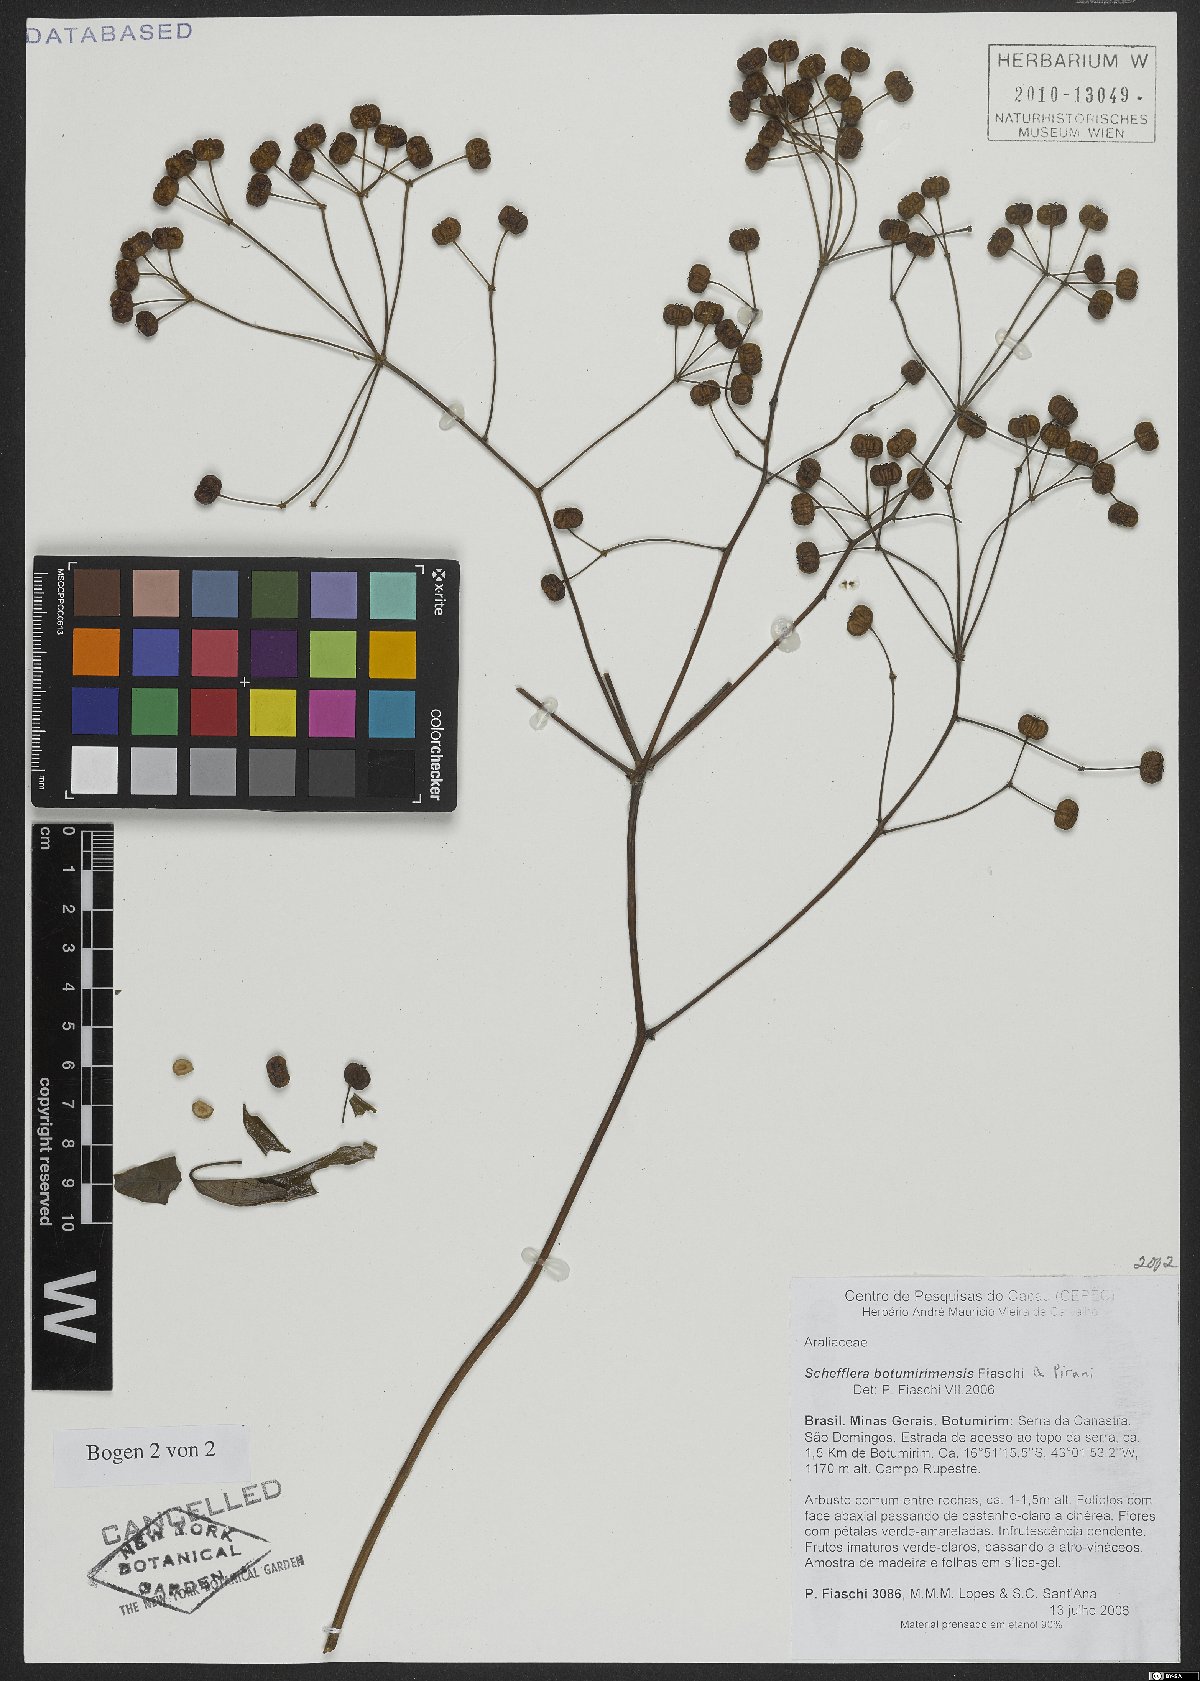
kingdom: Plantae
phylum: Tracheophyta
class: Magnoliopsida
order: Apiales
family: Araliaceae
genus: Didymopanax
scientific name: Didymopanax botumirimensis
